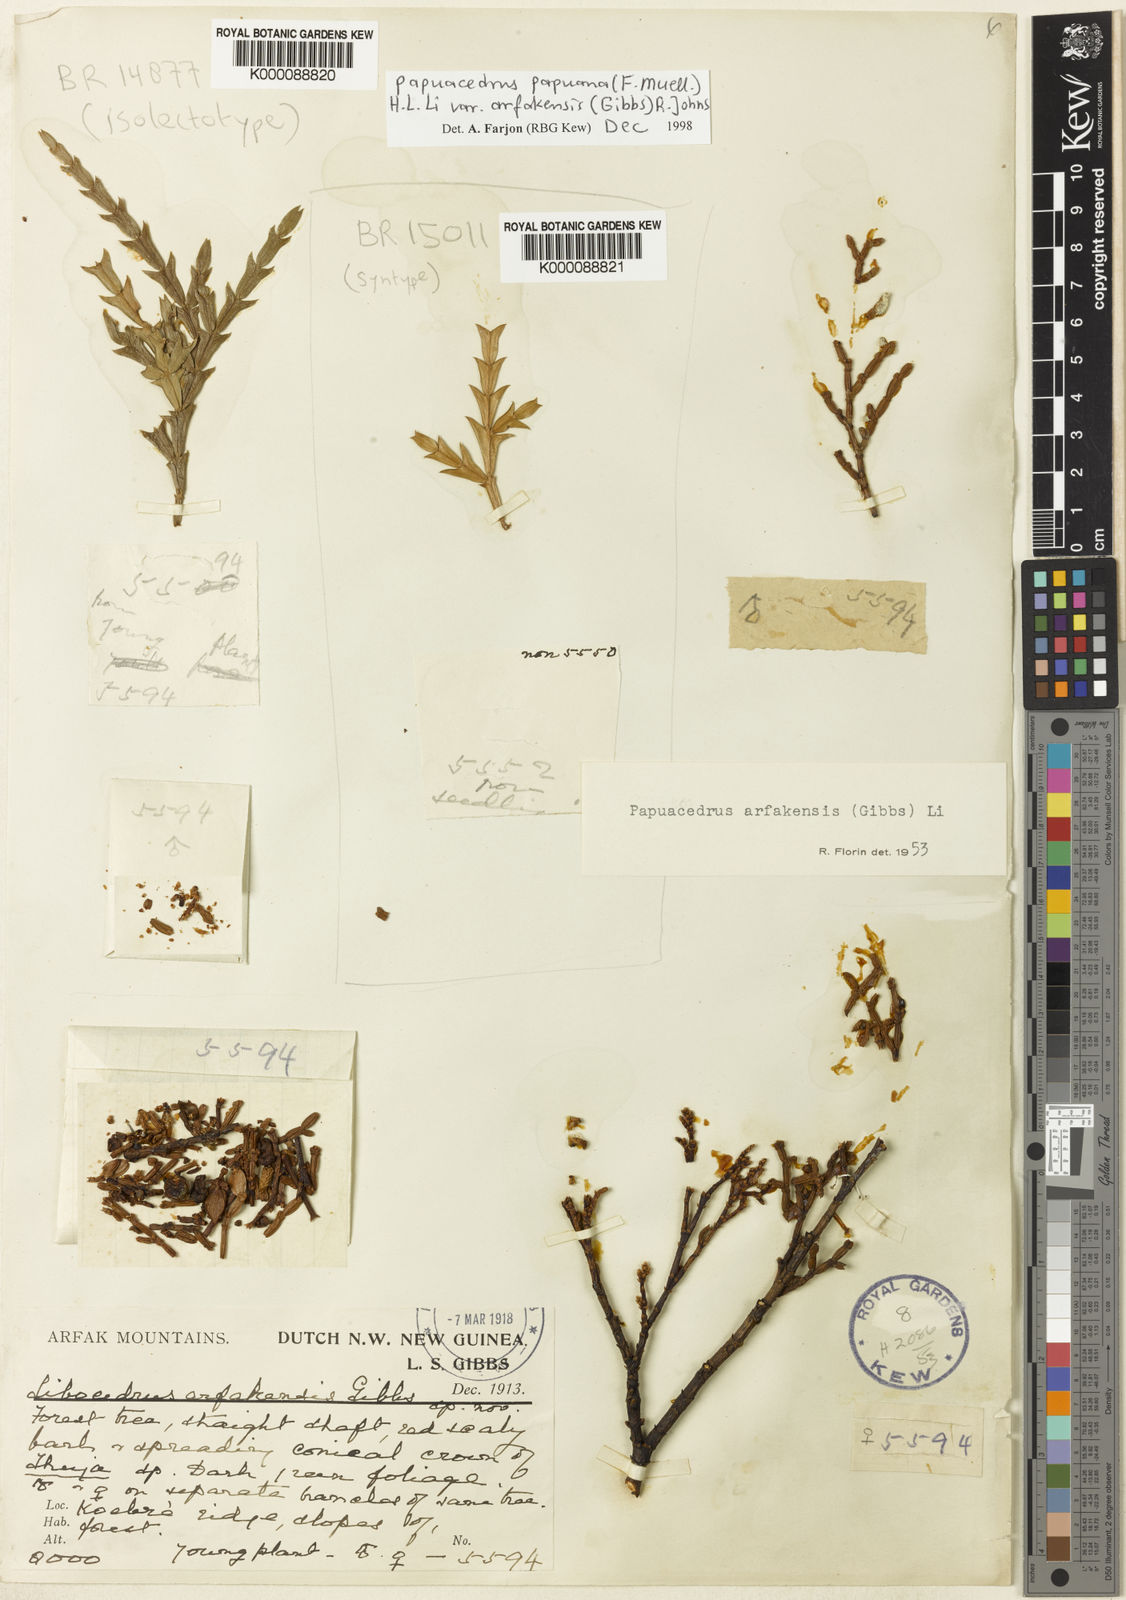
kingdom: Plantae
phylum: Tracheophyta
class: Pinopsida
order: Pinales
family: Cupressaceae
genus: Papuacedrus
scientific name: Papuacedrus papuana
